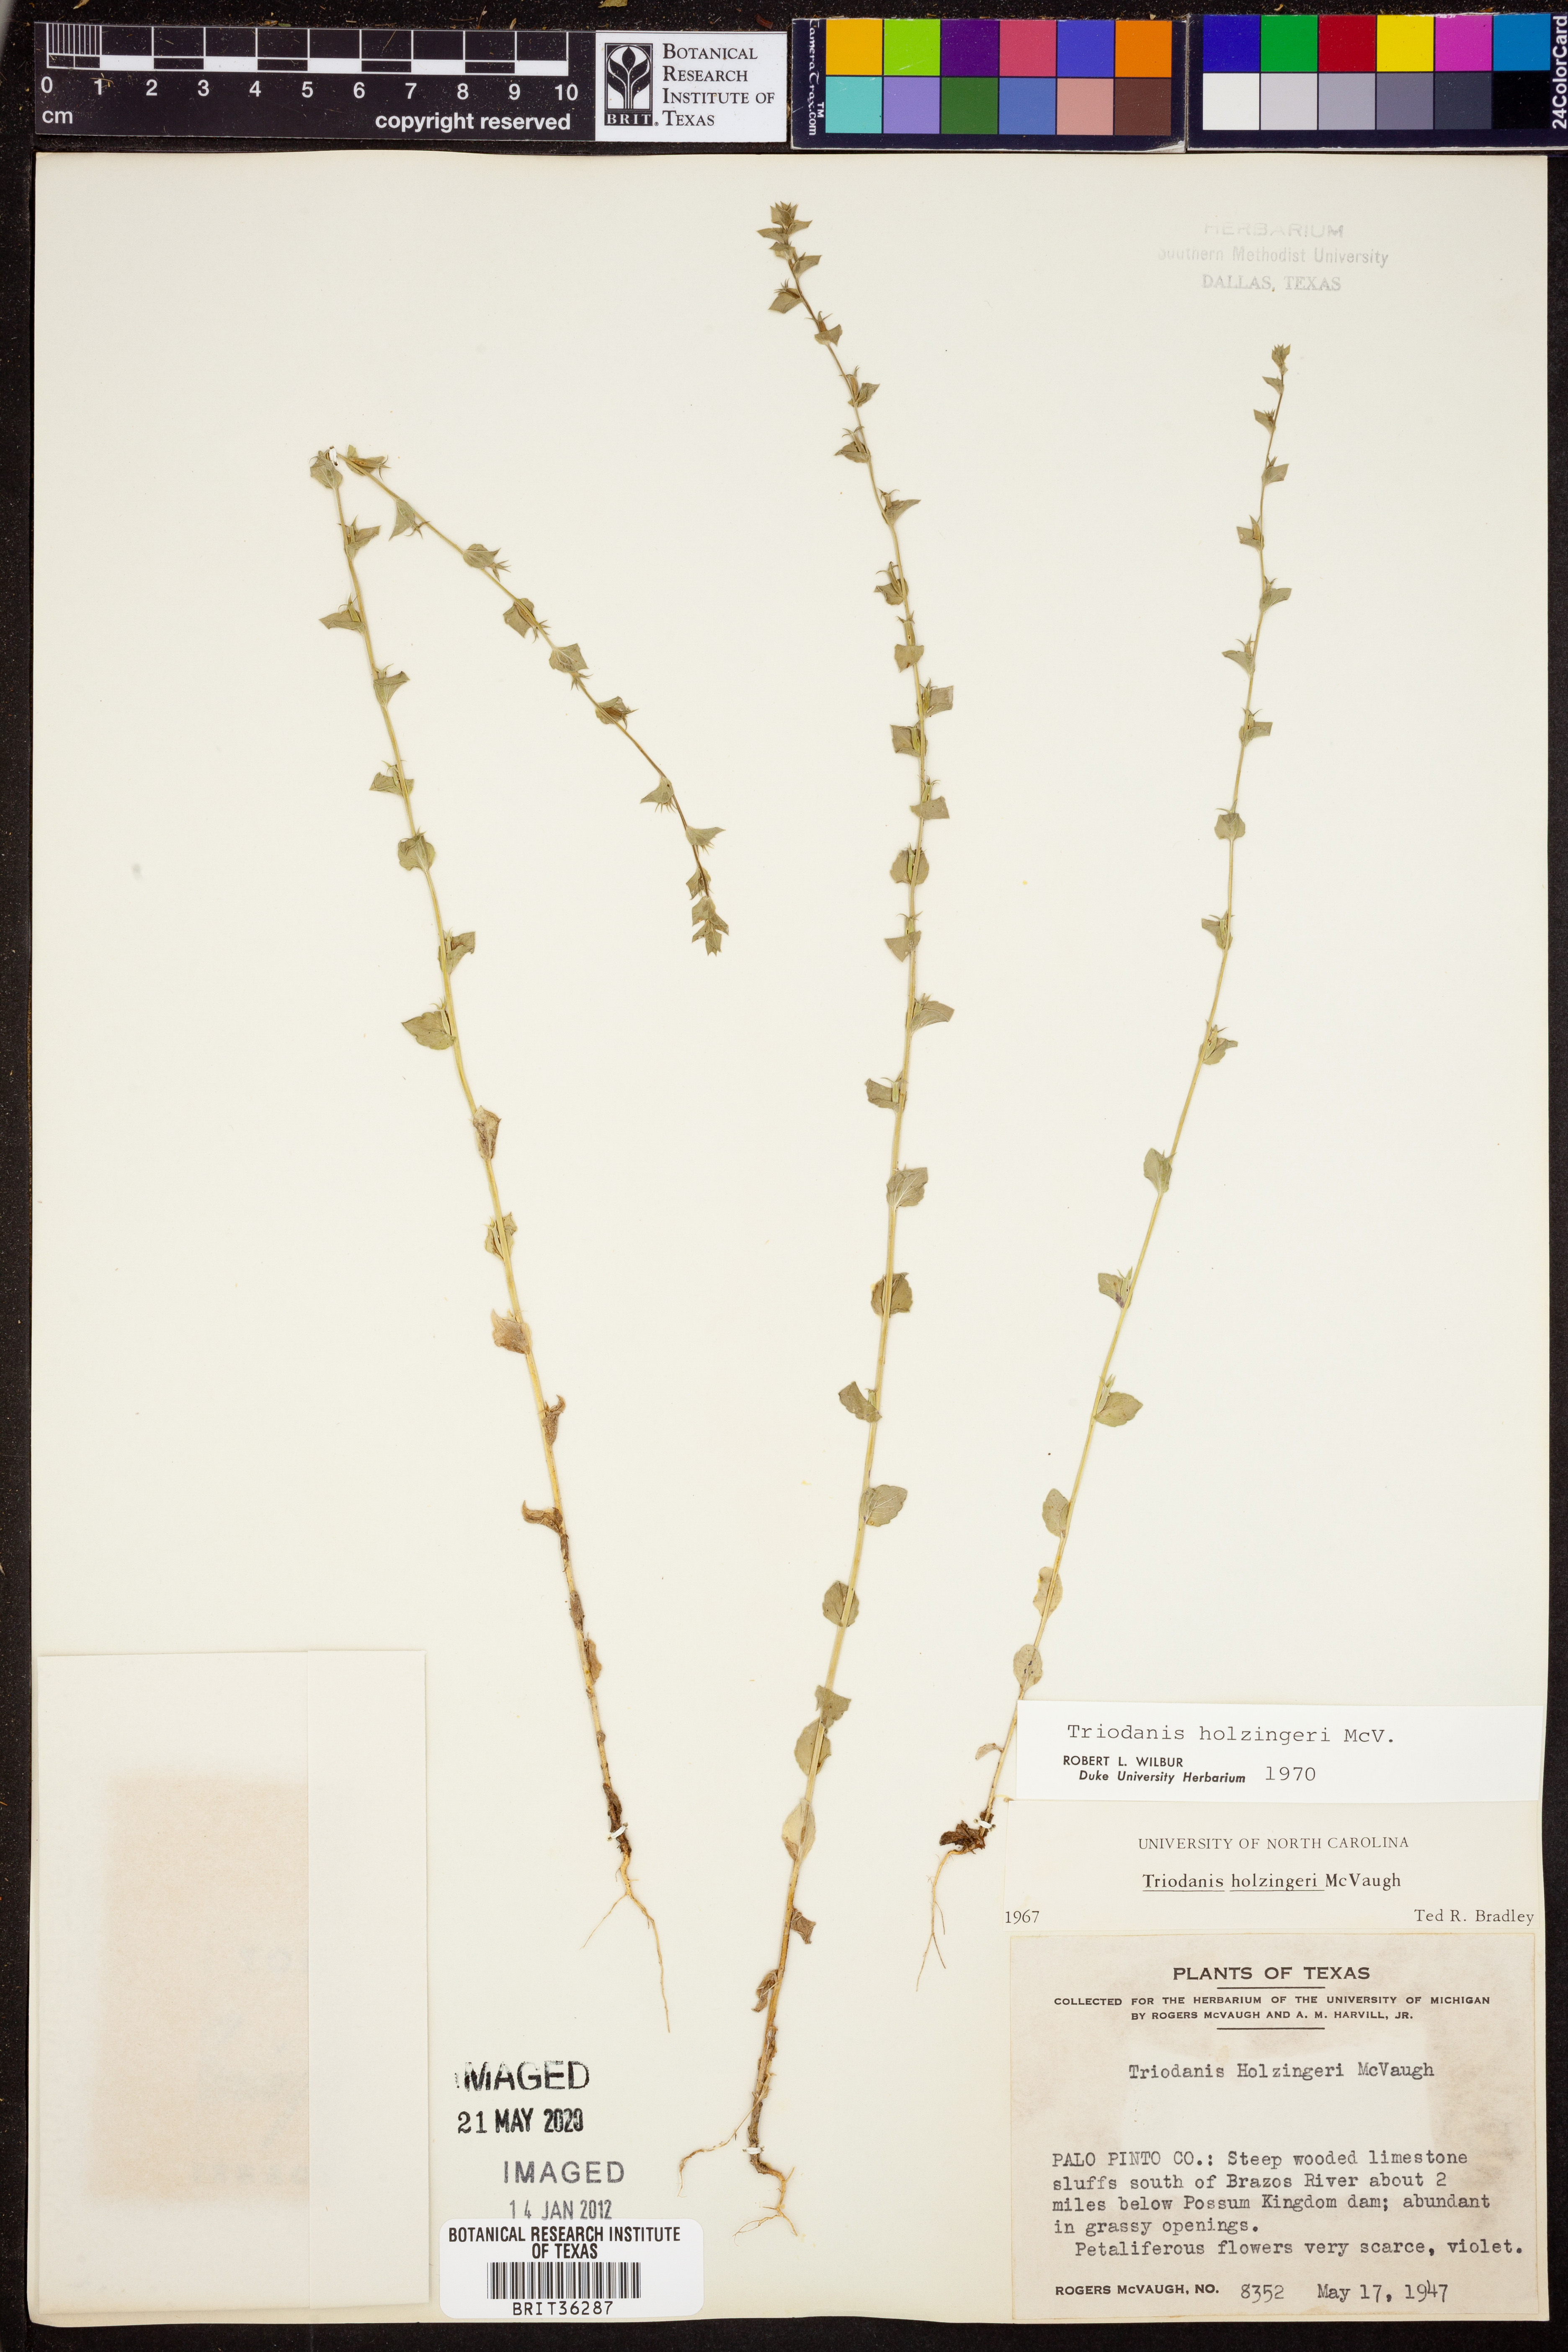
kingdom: Plantae
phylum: Tracheophyta
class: Magnoliopsida
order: Asterales
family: Campanulaceae
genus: Triodanis
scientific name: Triodanis holzingeri
